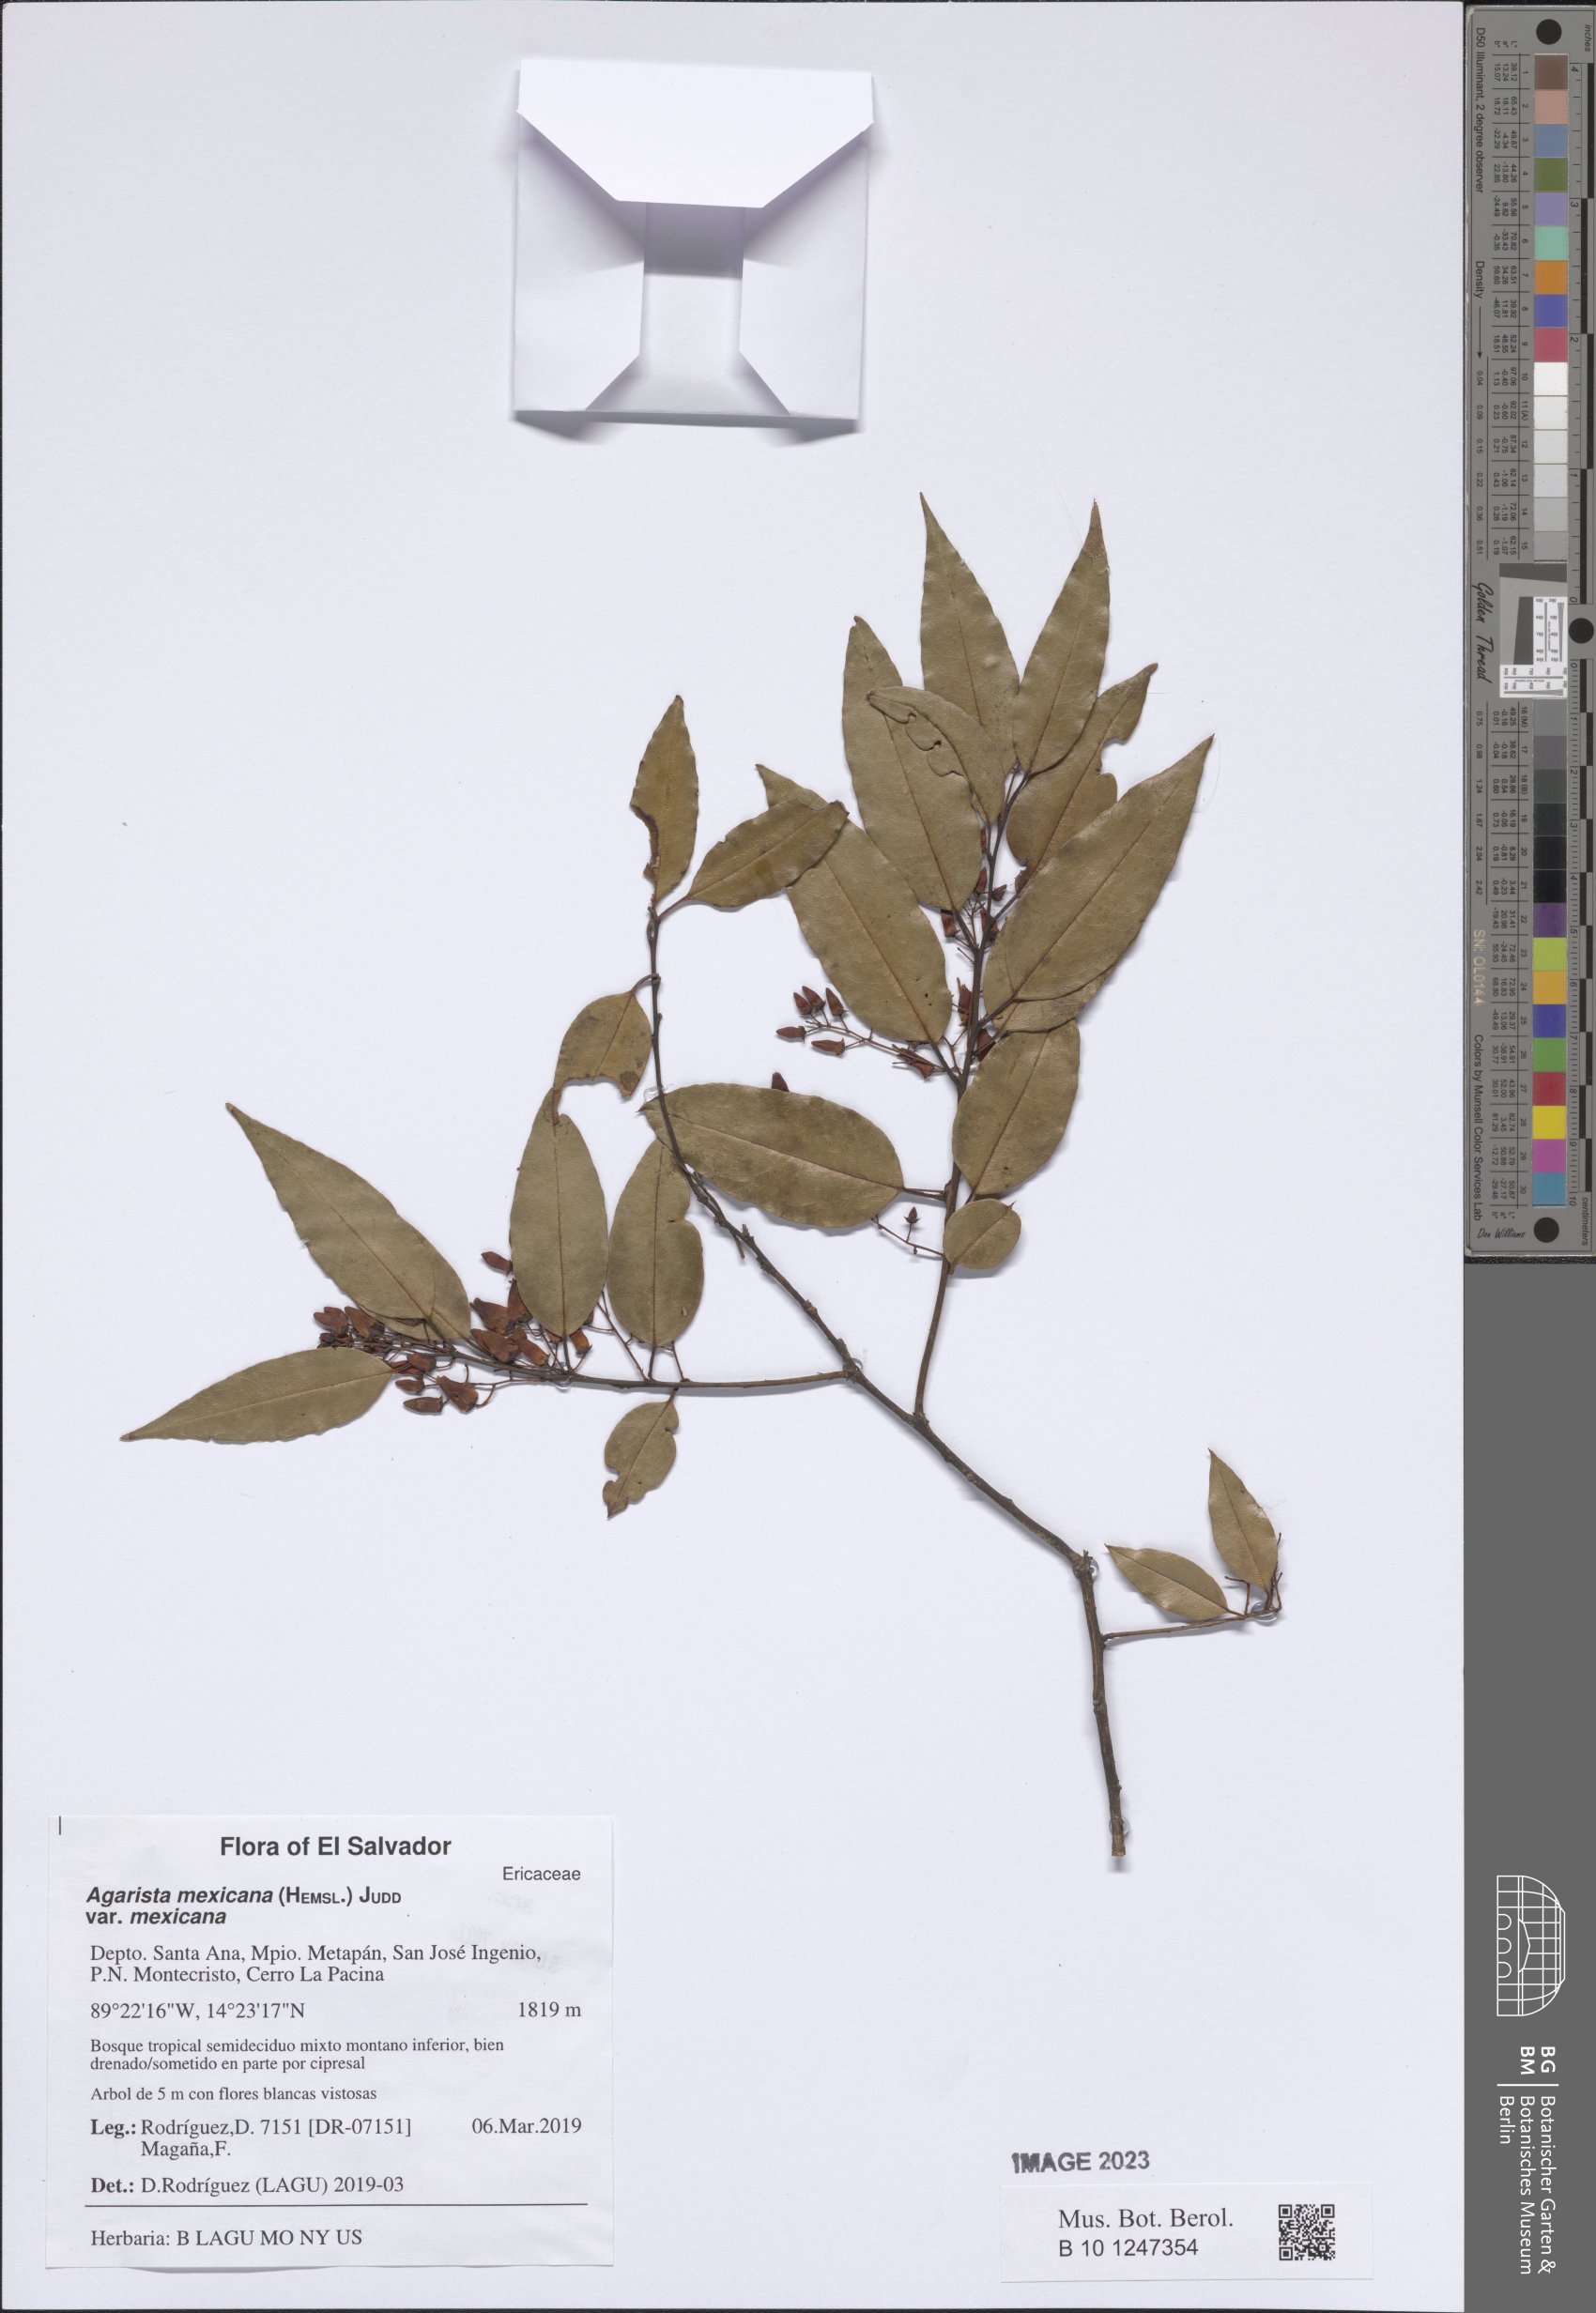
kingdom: Plantae
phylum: Tracheophyta
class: Magnoliopsida
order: Ericales
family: Ericaceae
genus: Agarista
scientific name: Agarista mexicana
